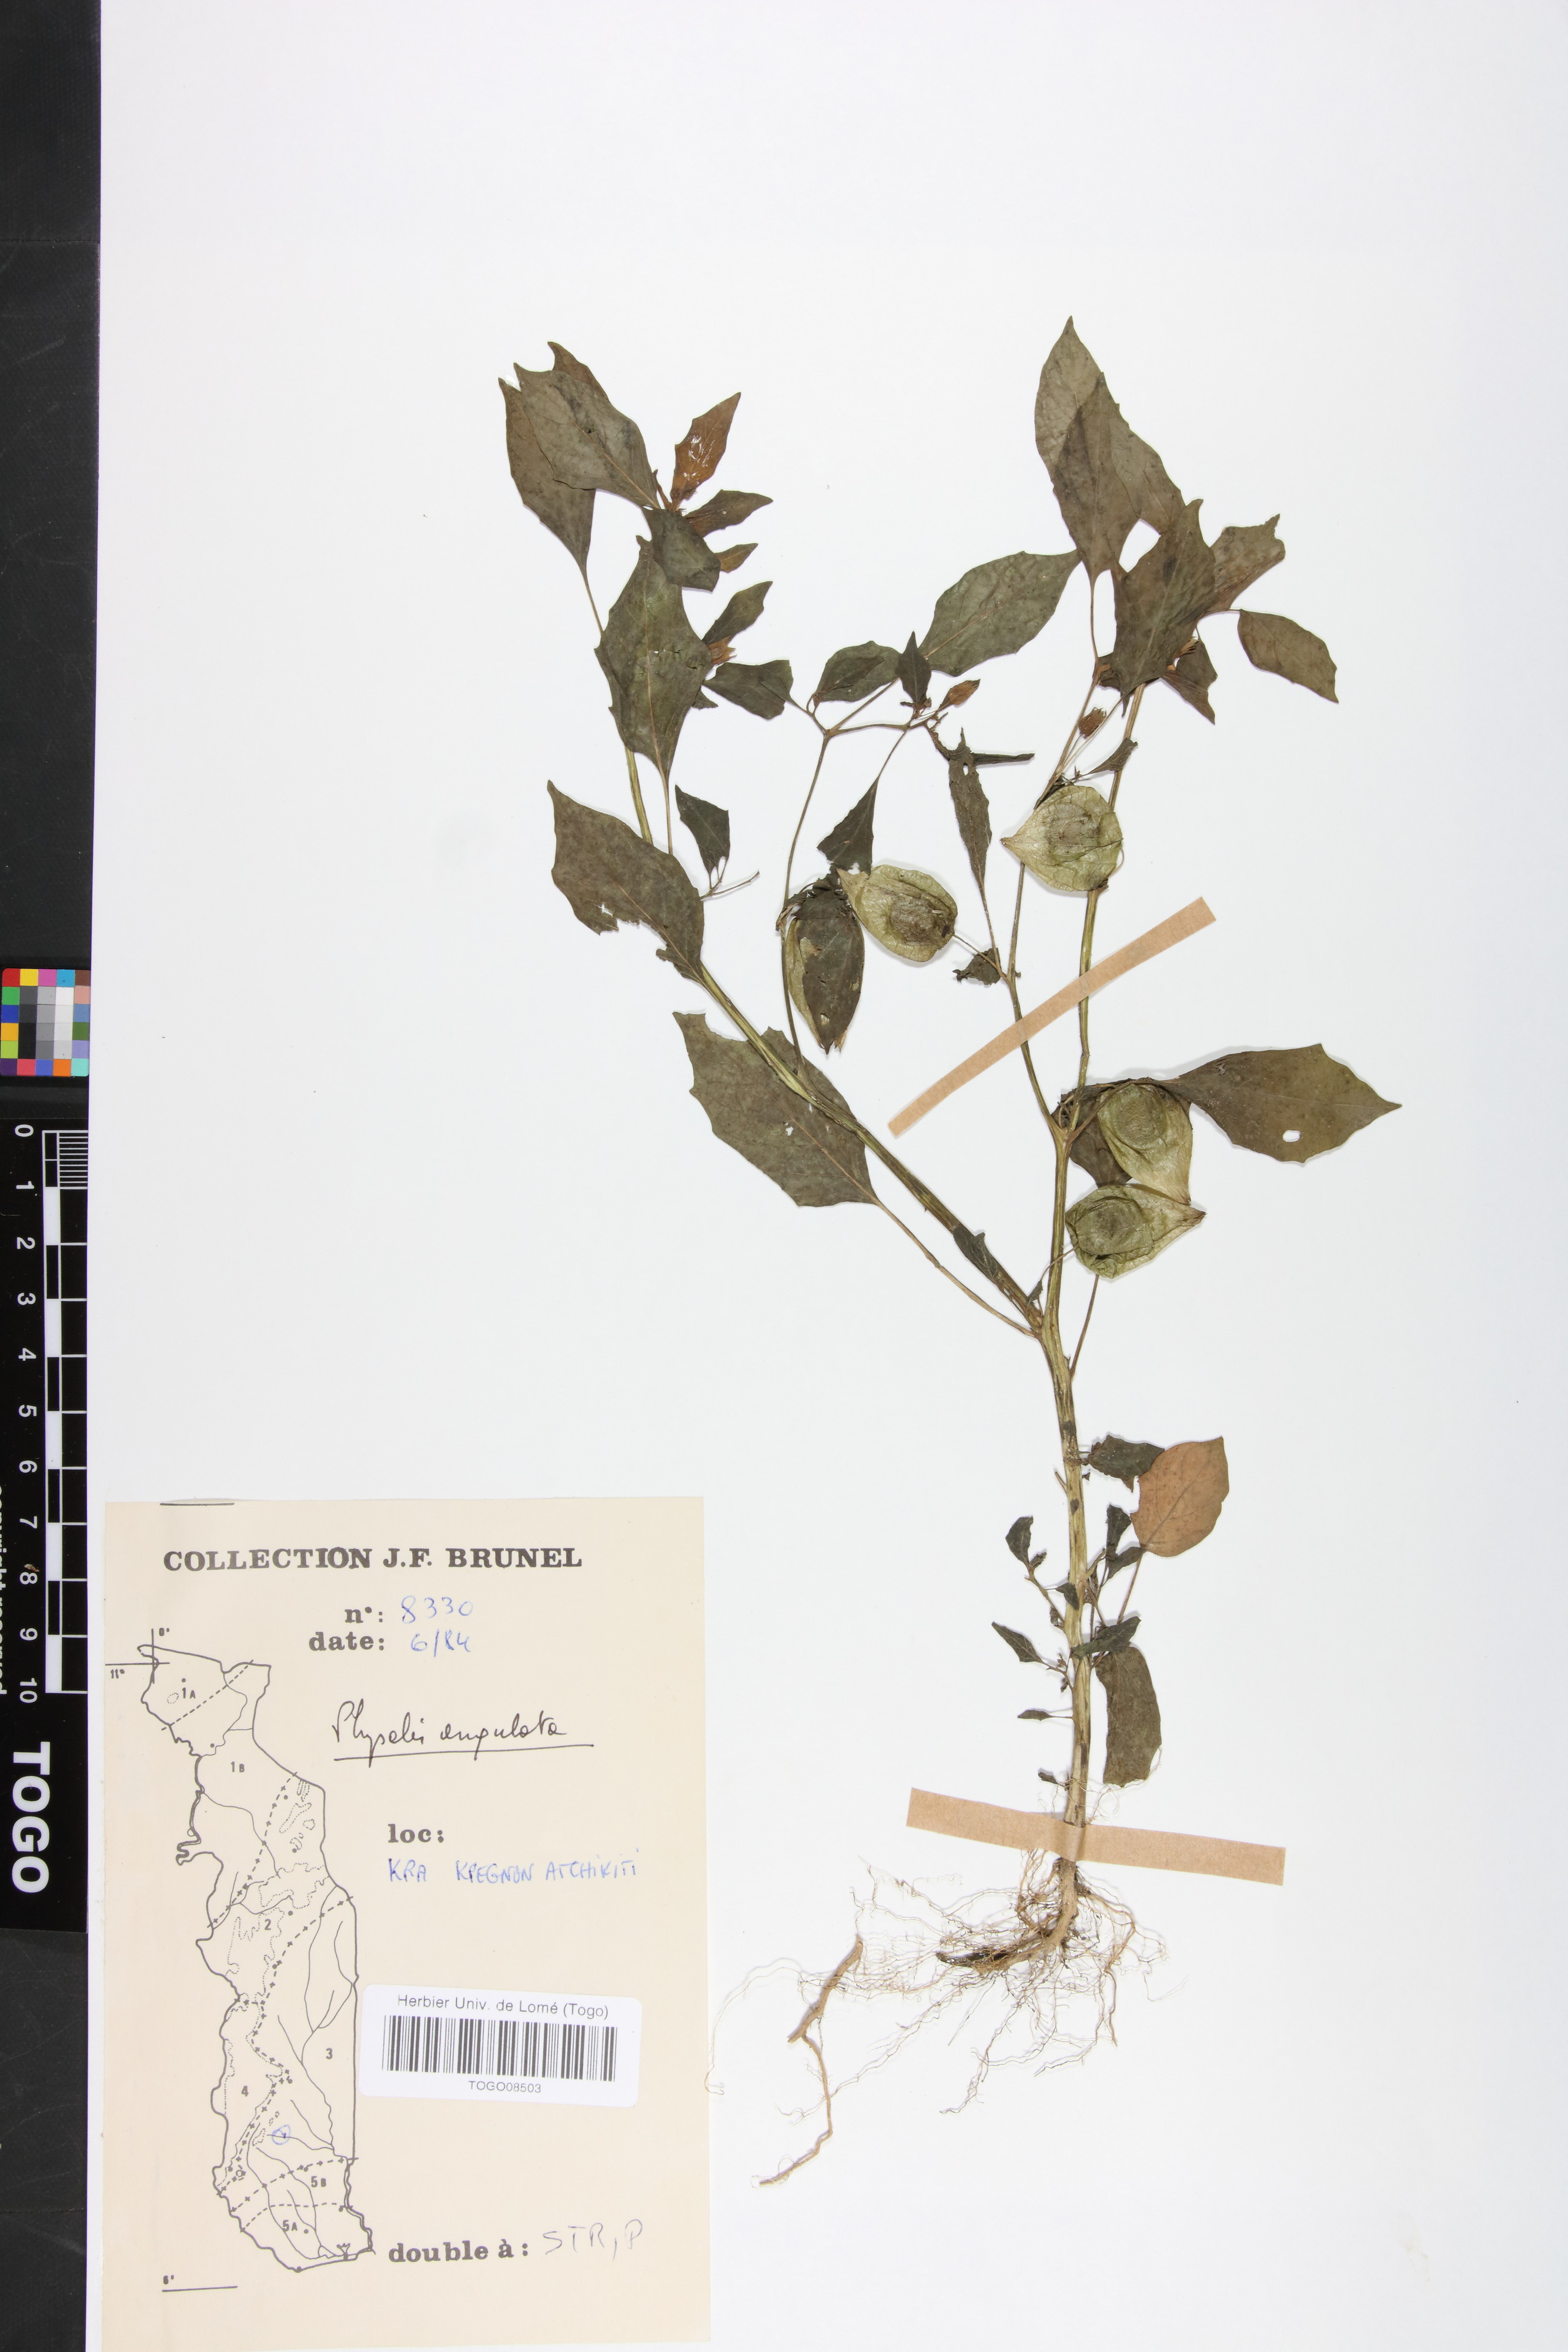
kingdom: Plantae
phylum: Tracheophyta
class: Magnoliopsida
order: Solanales
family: Solanaceae
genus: Physalis
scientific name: Physalis angulata
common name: Angular winter-cherry
